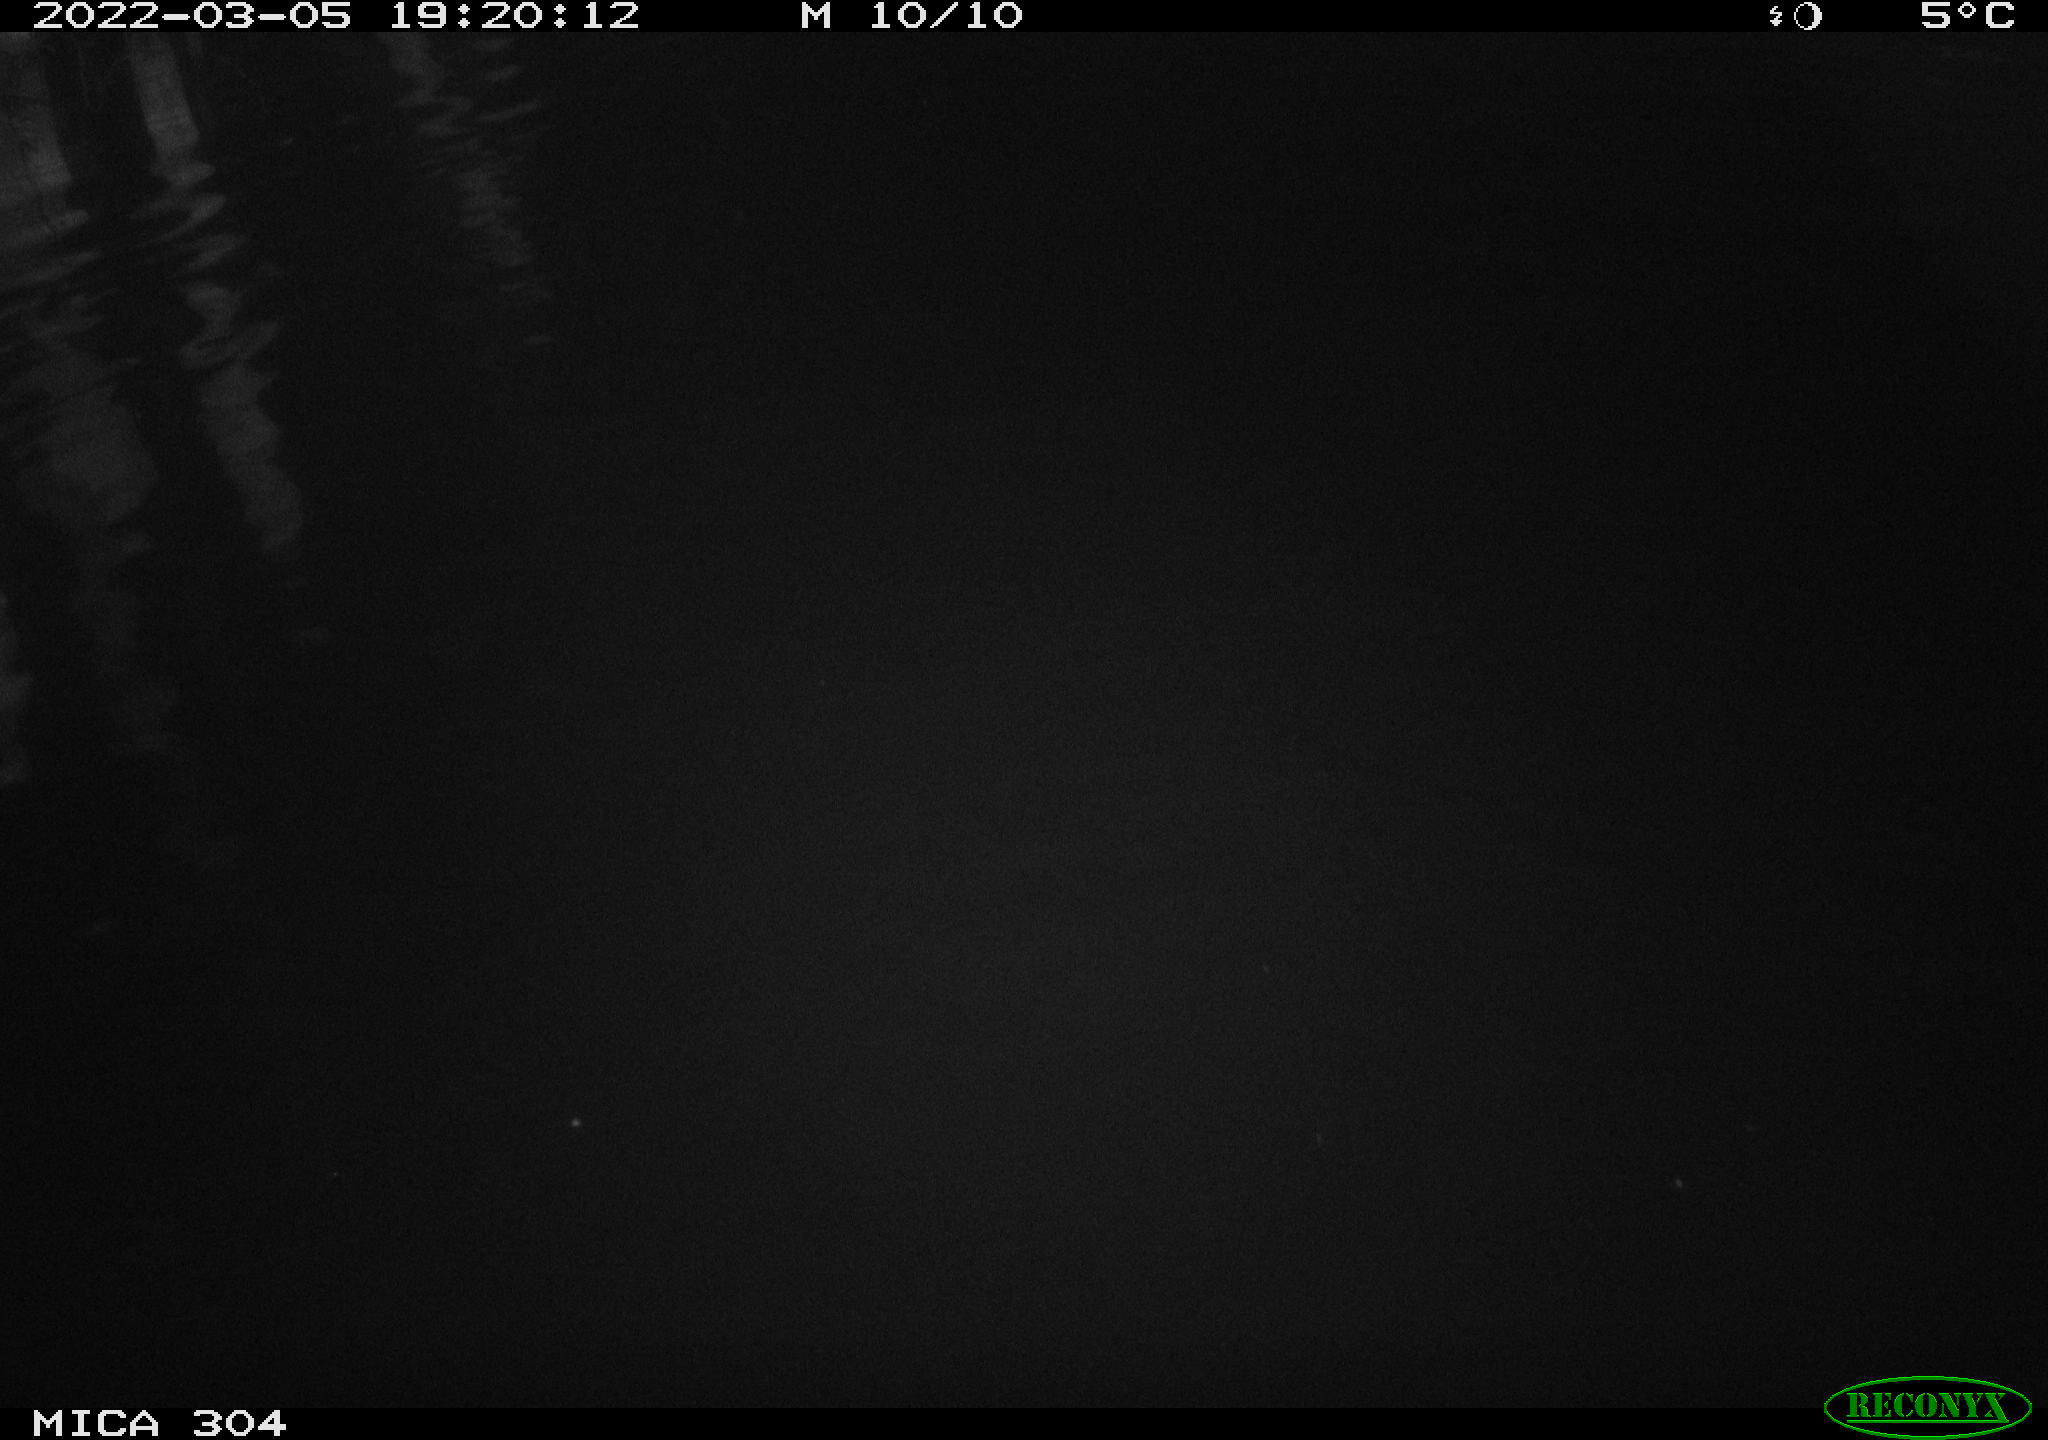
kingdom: Animalia
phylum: Chordata
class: Mammalia
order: Rodentia
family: Cricetidae
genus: Ondatra
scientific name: Ondatra zibethicus
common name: Muskrat
